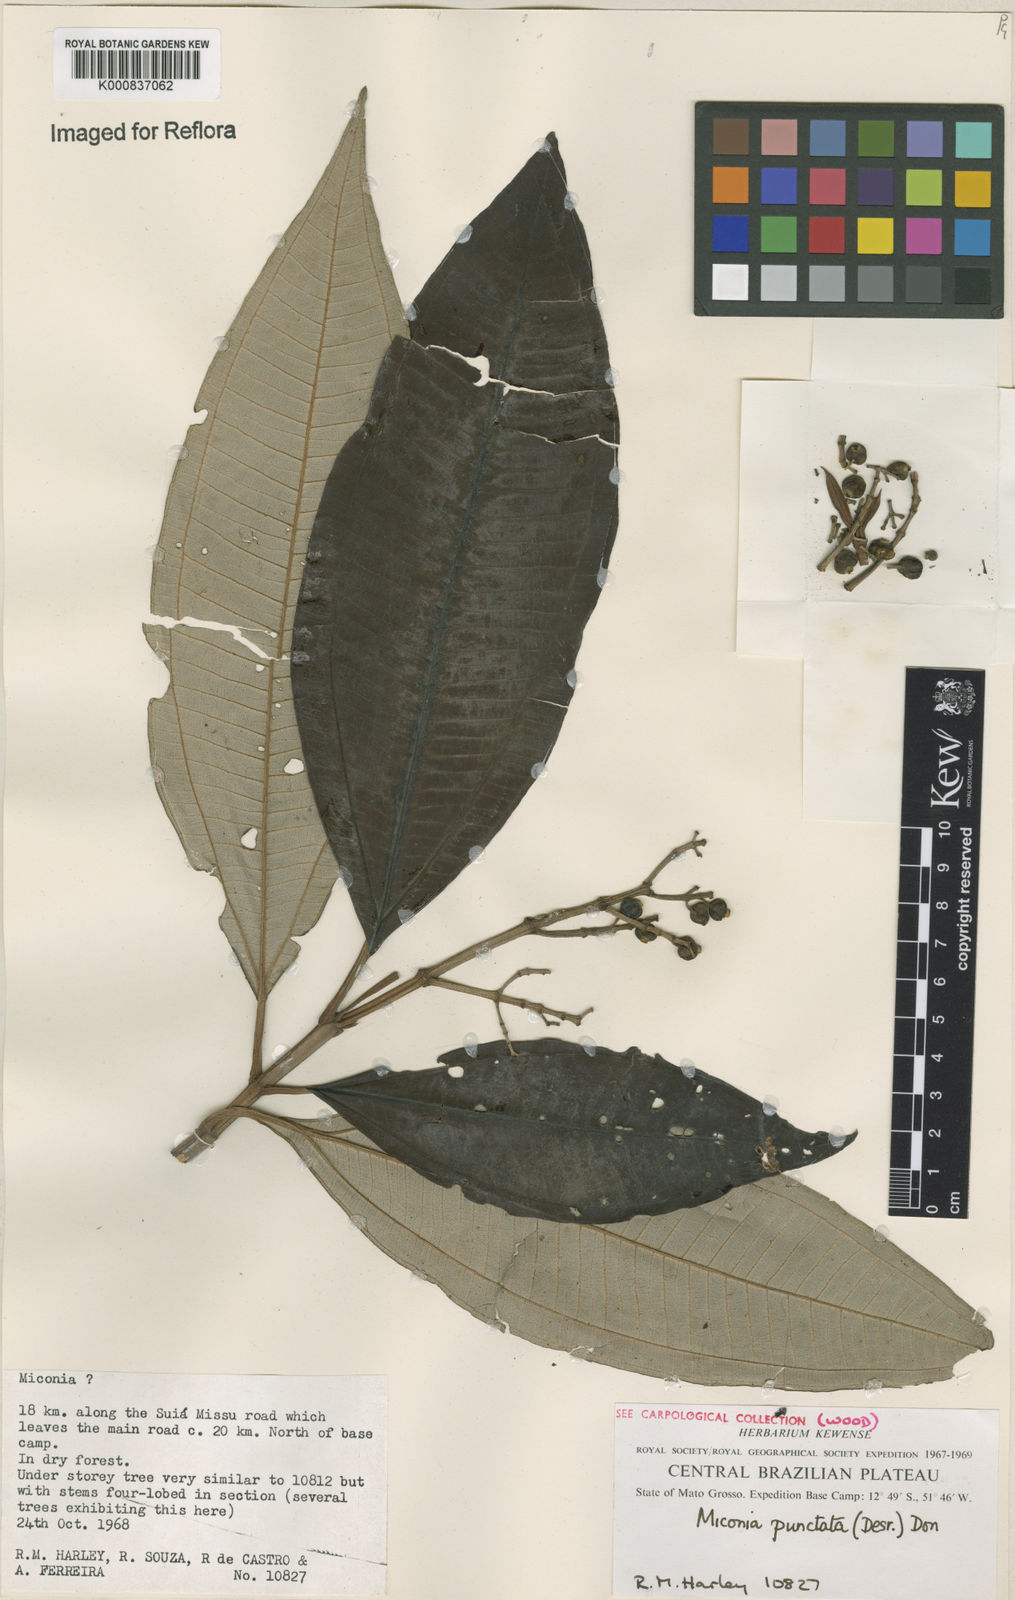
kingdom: Plantae
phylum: Tracheophyta
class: Magnoliopsida
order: Myrtales
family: Melastomataceae
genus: Miconia
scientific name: Miconia punctata
